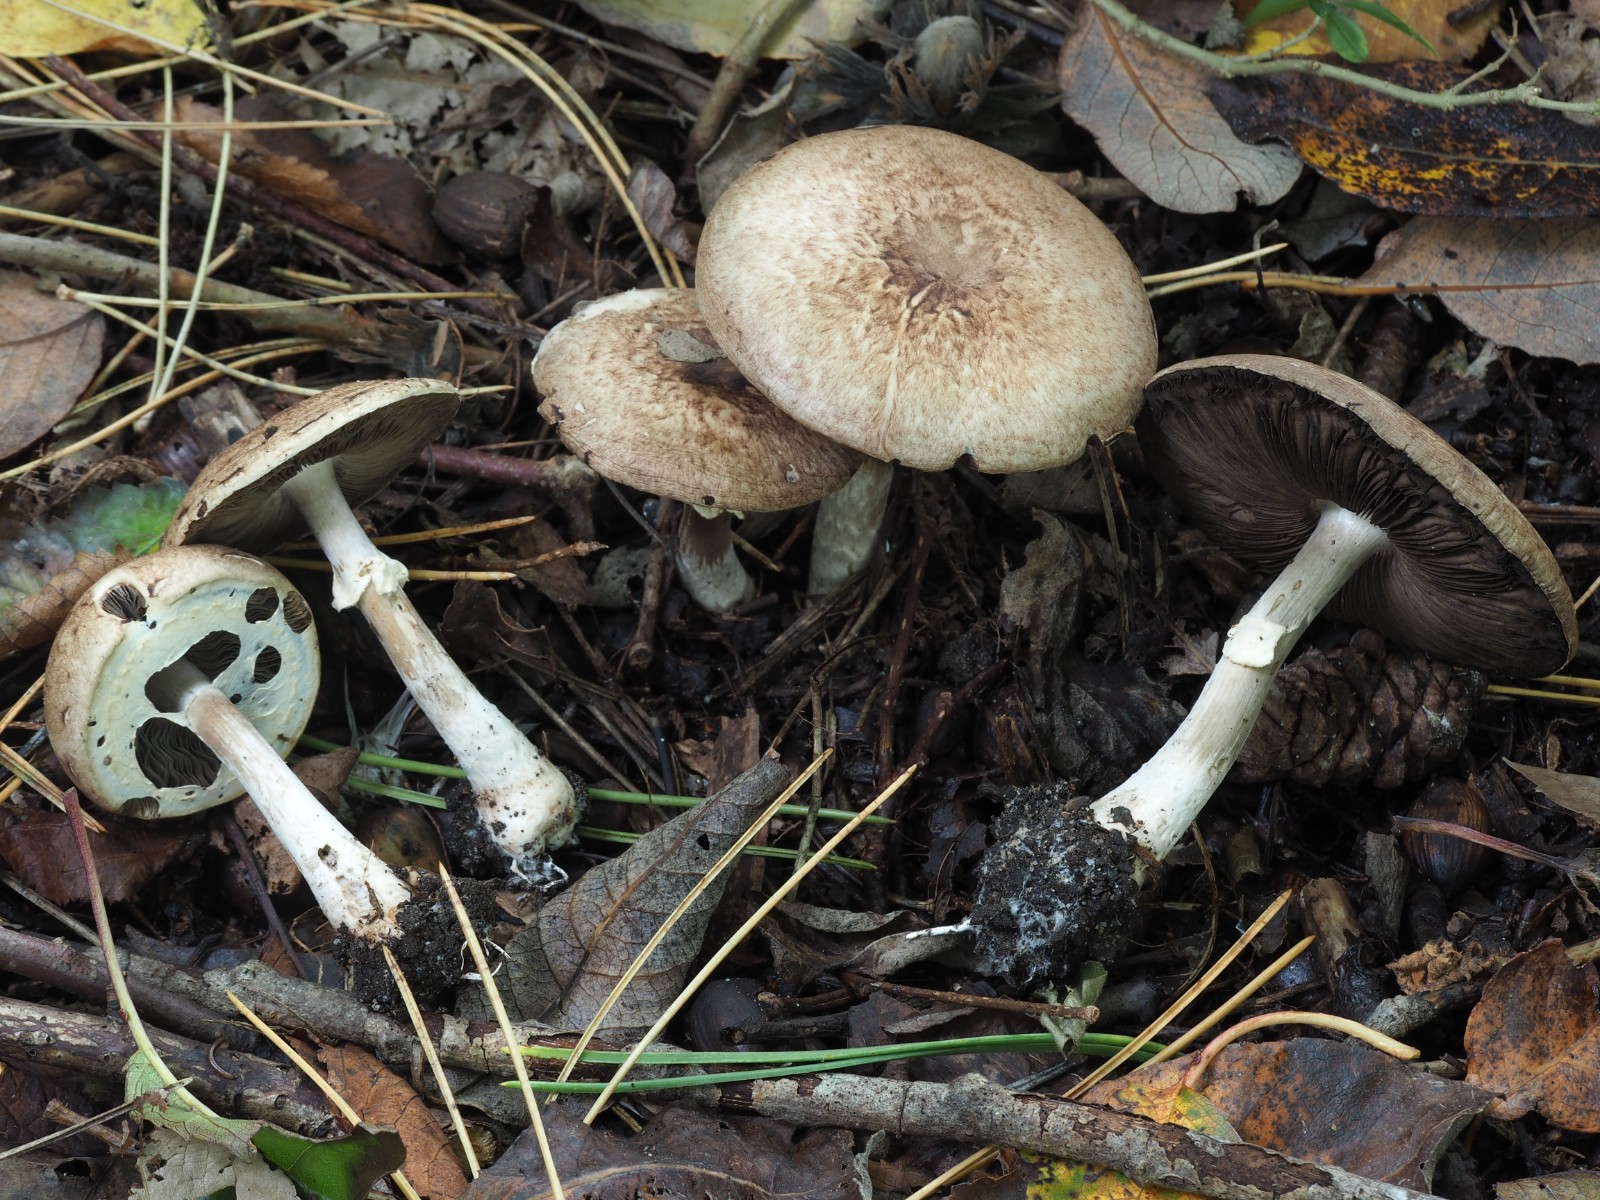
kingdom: Fungi
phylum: Basidiomycota
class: Agaricomycetes
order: Agaricales
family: Agaricaceae
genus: Agaricus
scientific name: Agaricus impudicus
